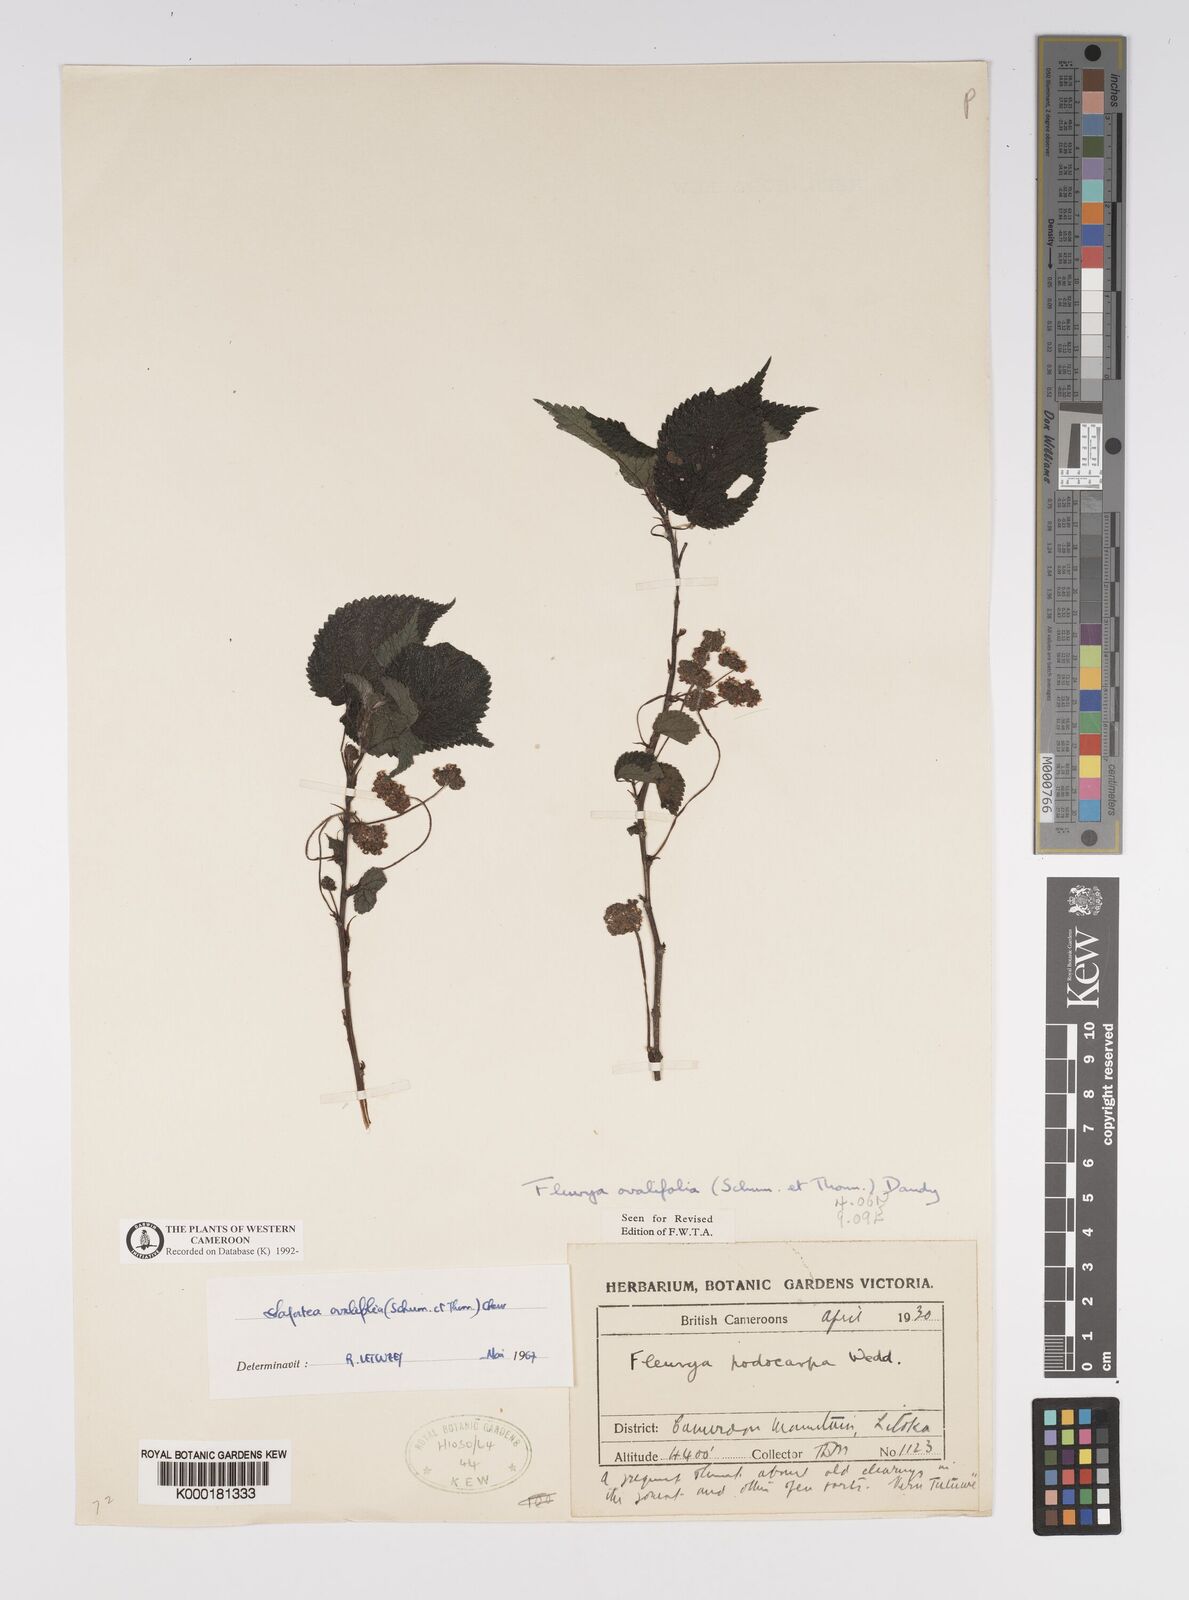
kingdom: Plantae
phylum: Tracheophyta
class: Magnoliopsida
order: Rosales
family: Urticaceae
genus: Laportea
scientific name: Laportea ovalifolia
